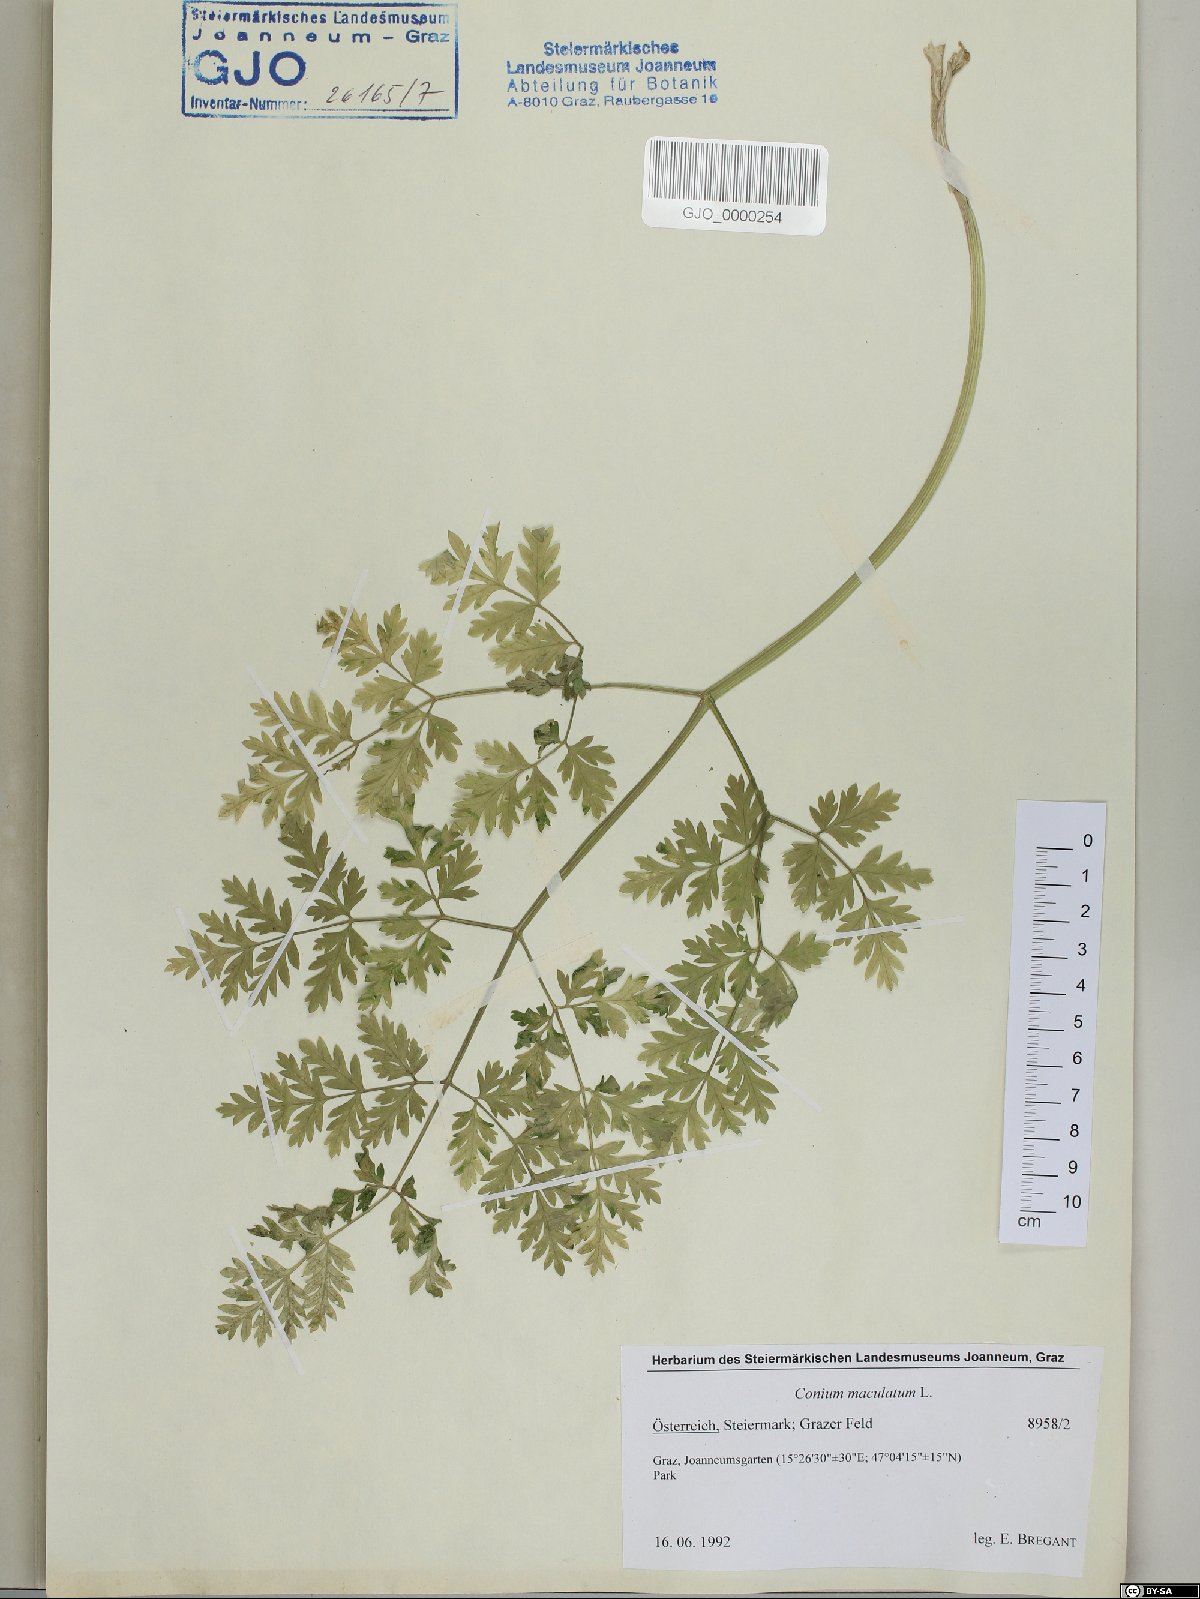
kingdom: Plantae
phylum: Tracheophyta
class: Magnoliopsida
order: Apiales
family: Apiaceae
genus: Conium
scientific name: Conium maculatum
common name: Hemlock
